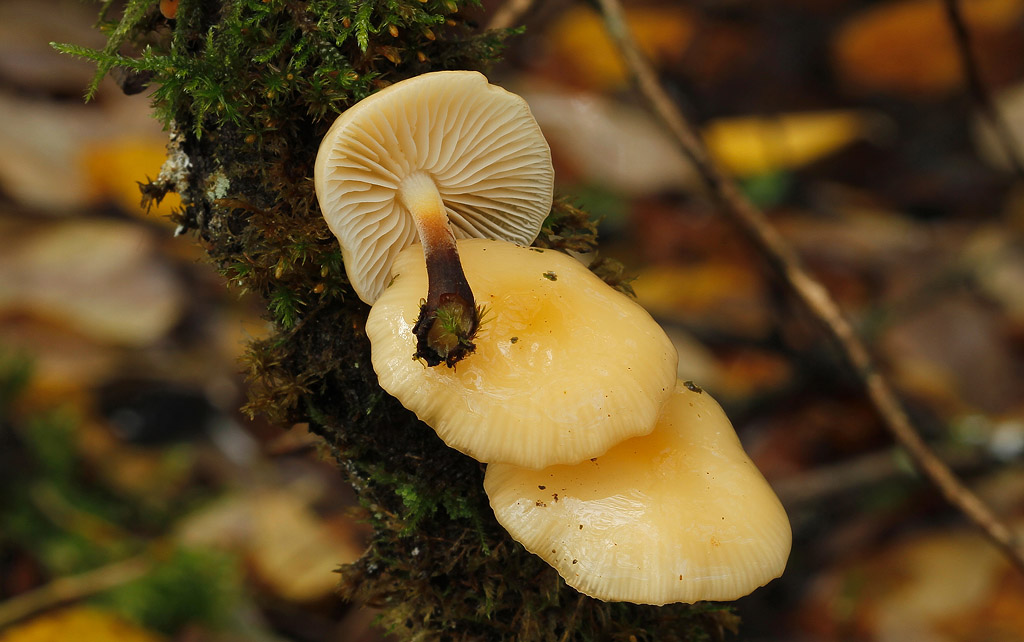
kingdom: Fungi
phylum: Basidiomycota
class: Agaricomycetes
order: Agaricales
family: Physalacriaceae
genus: Flammulina
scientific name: Flammulina velutipes
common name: gul fløjlsfod
